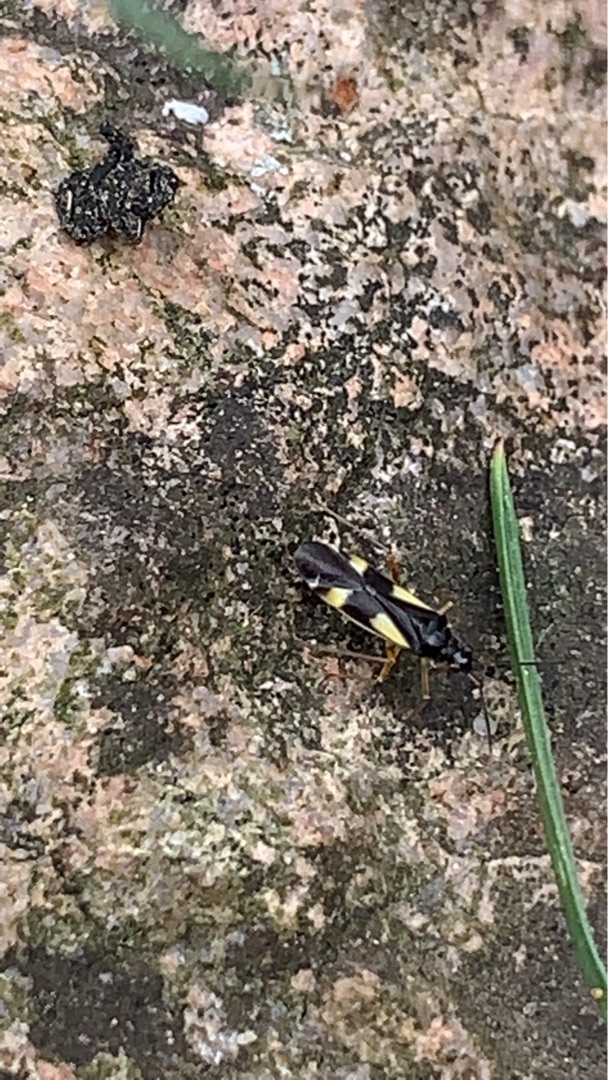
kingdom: Animalia
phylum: Arthropoda
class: Insecta
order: Hemiptera
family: Miridae
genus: Dryophilocoris
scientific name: Dryophilocoris flavoquadrimaculatus
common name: Fireplettet blomstertæge
